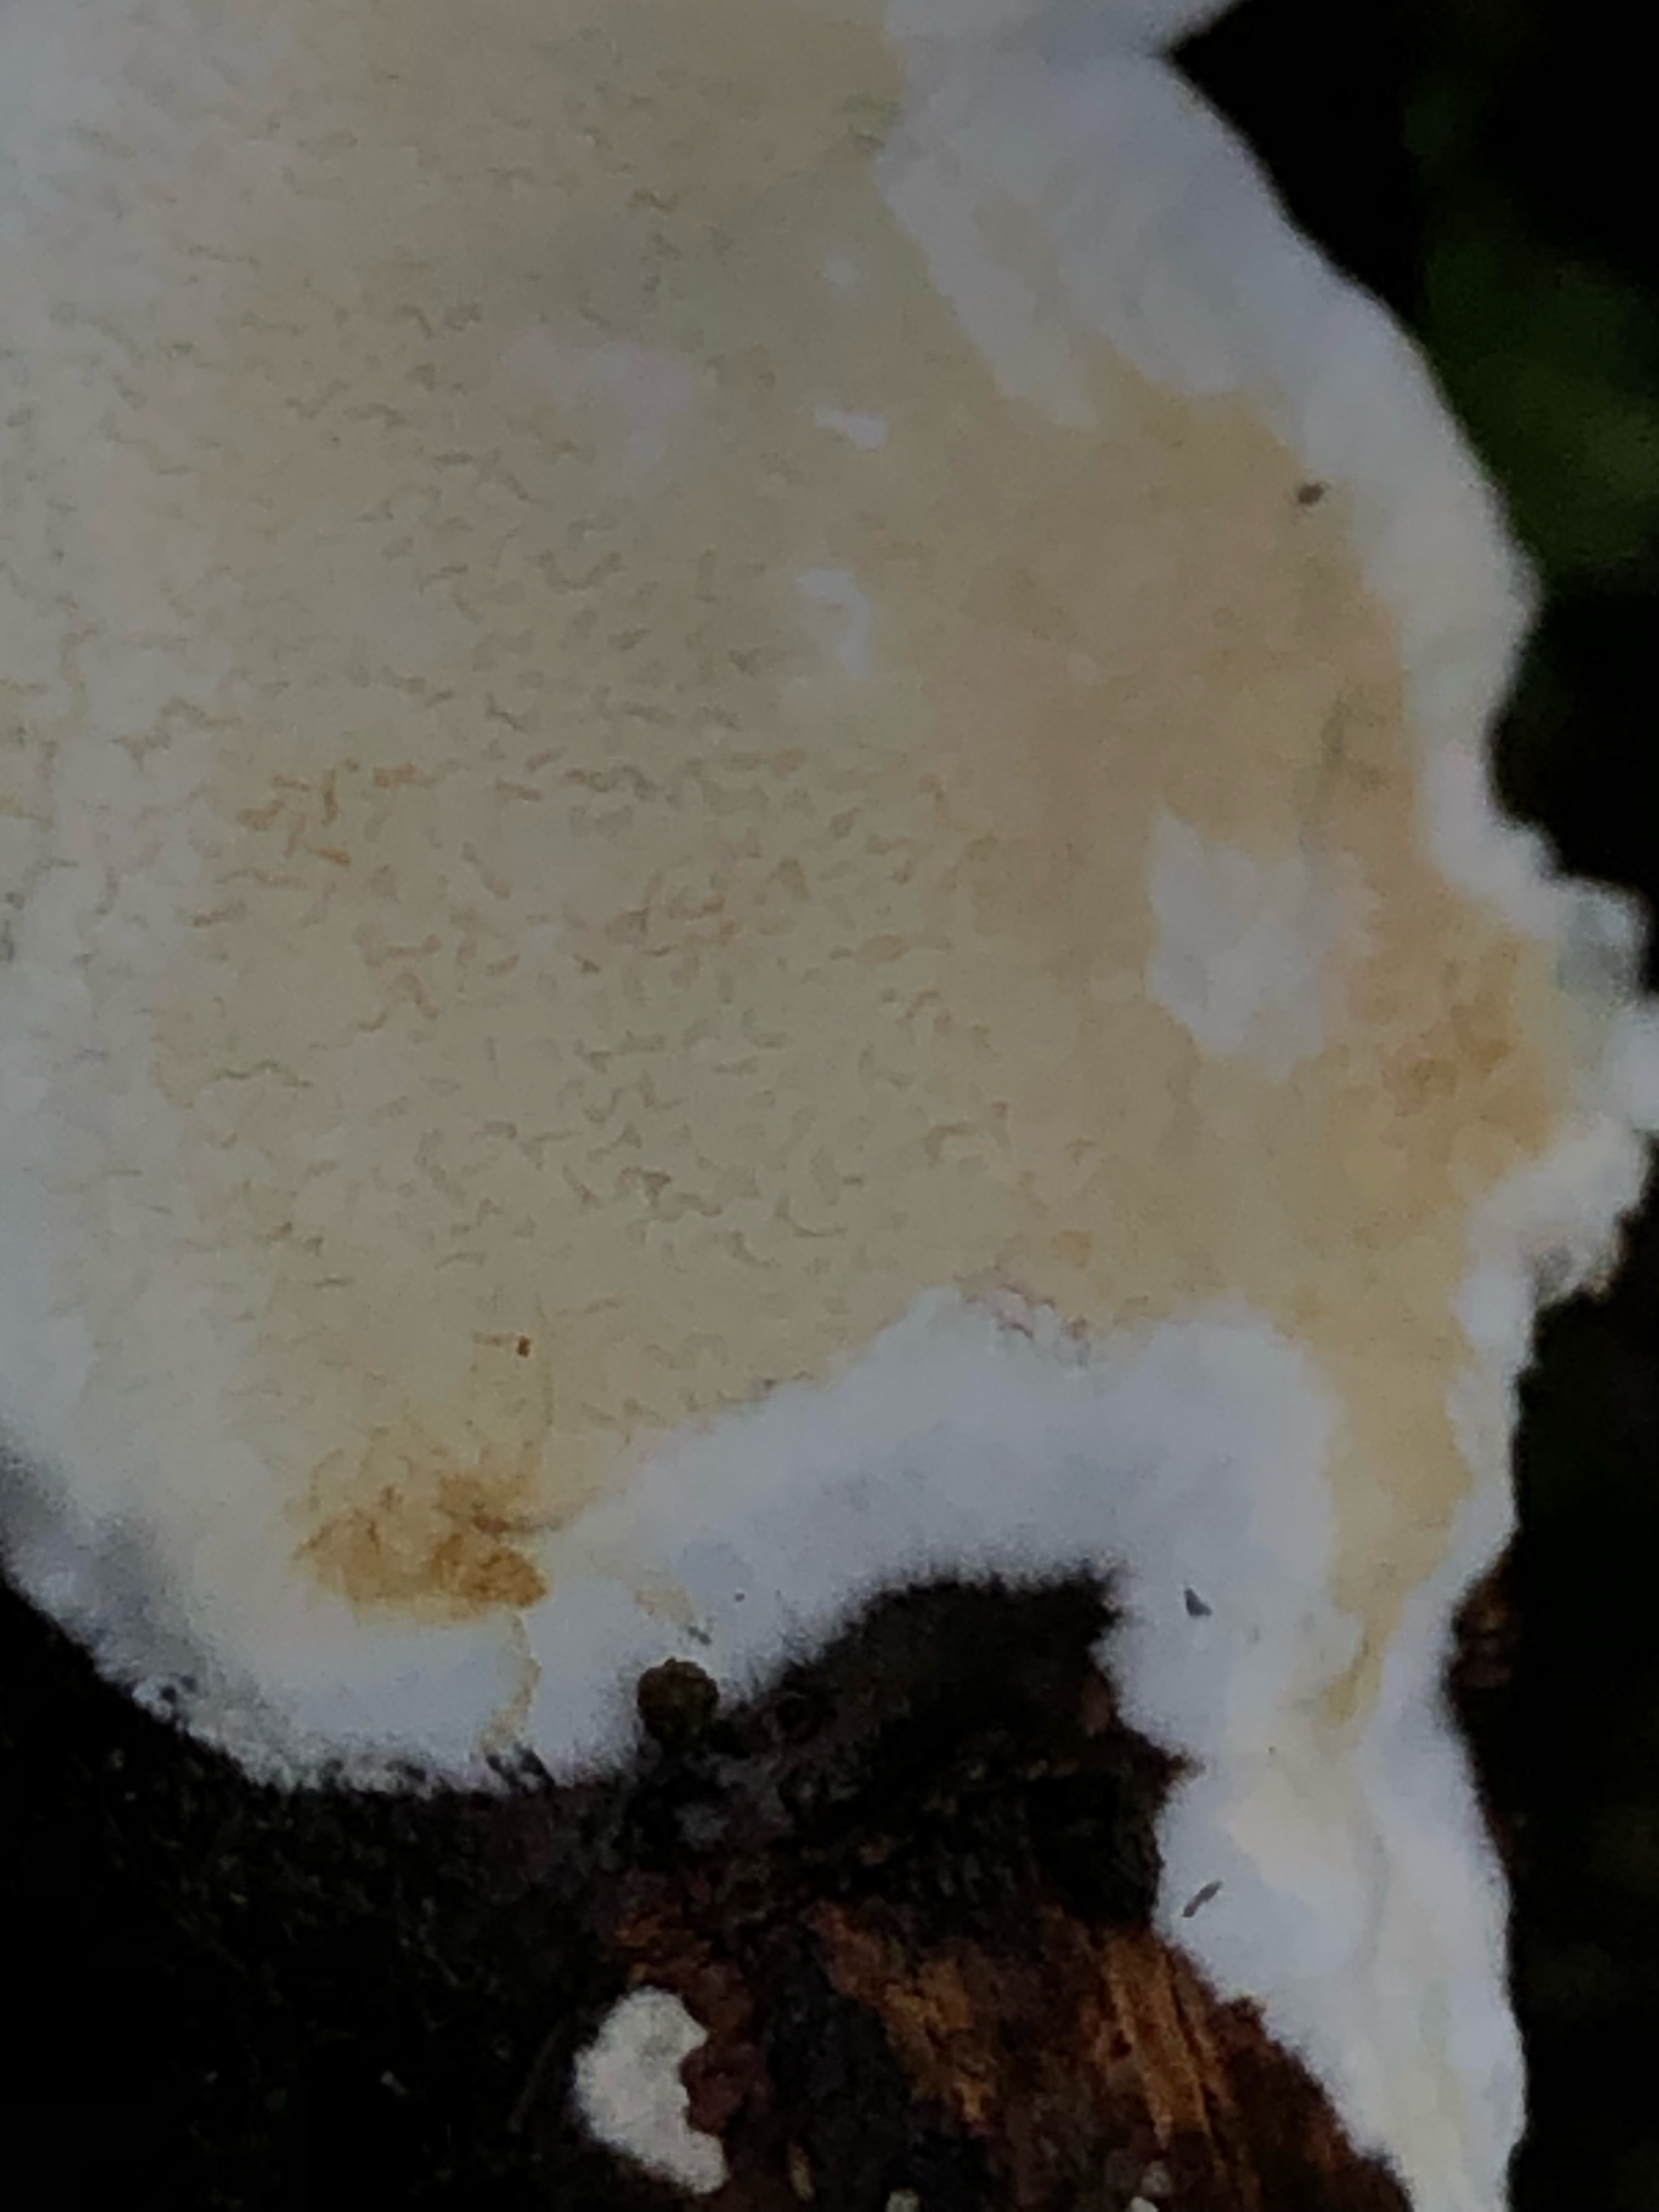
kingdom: Fungi
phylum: Basidiomycota
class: Agaricomycetes
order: Polyporales
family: Irpicaceae
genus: Byssomerulius
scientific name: Byssomerulius corium
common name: læder-åresvamp
